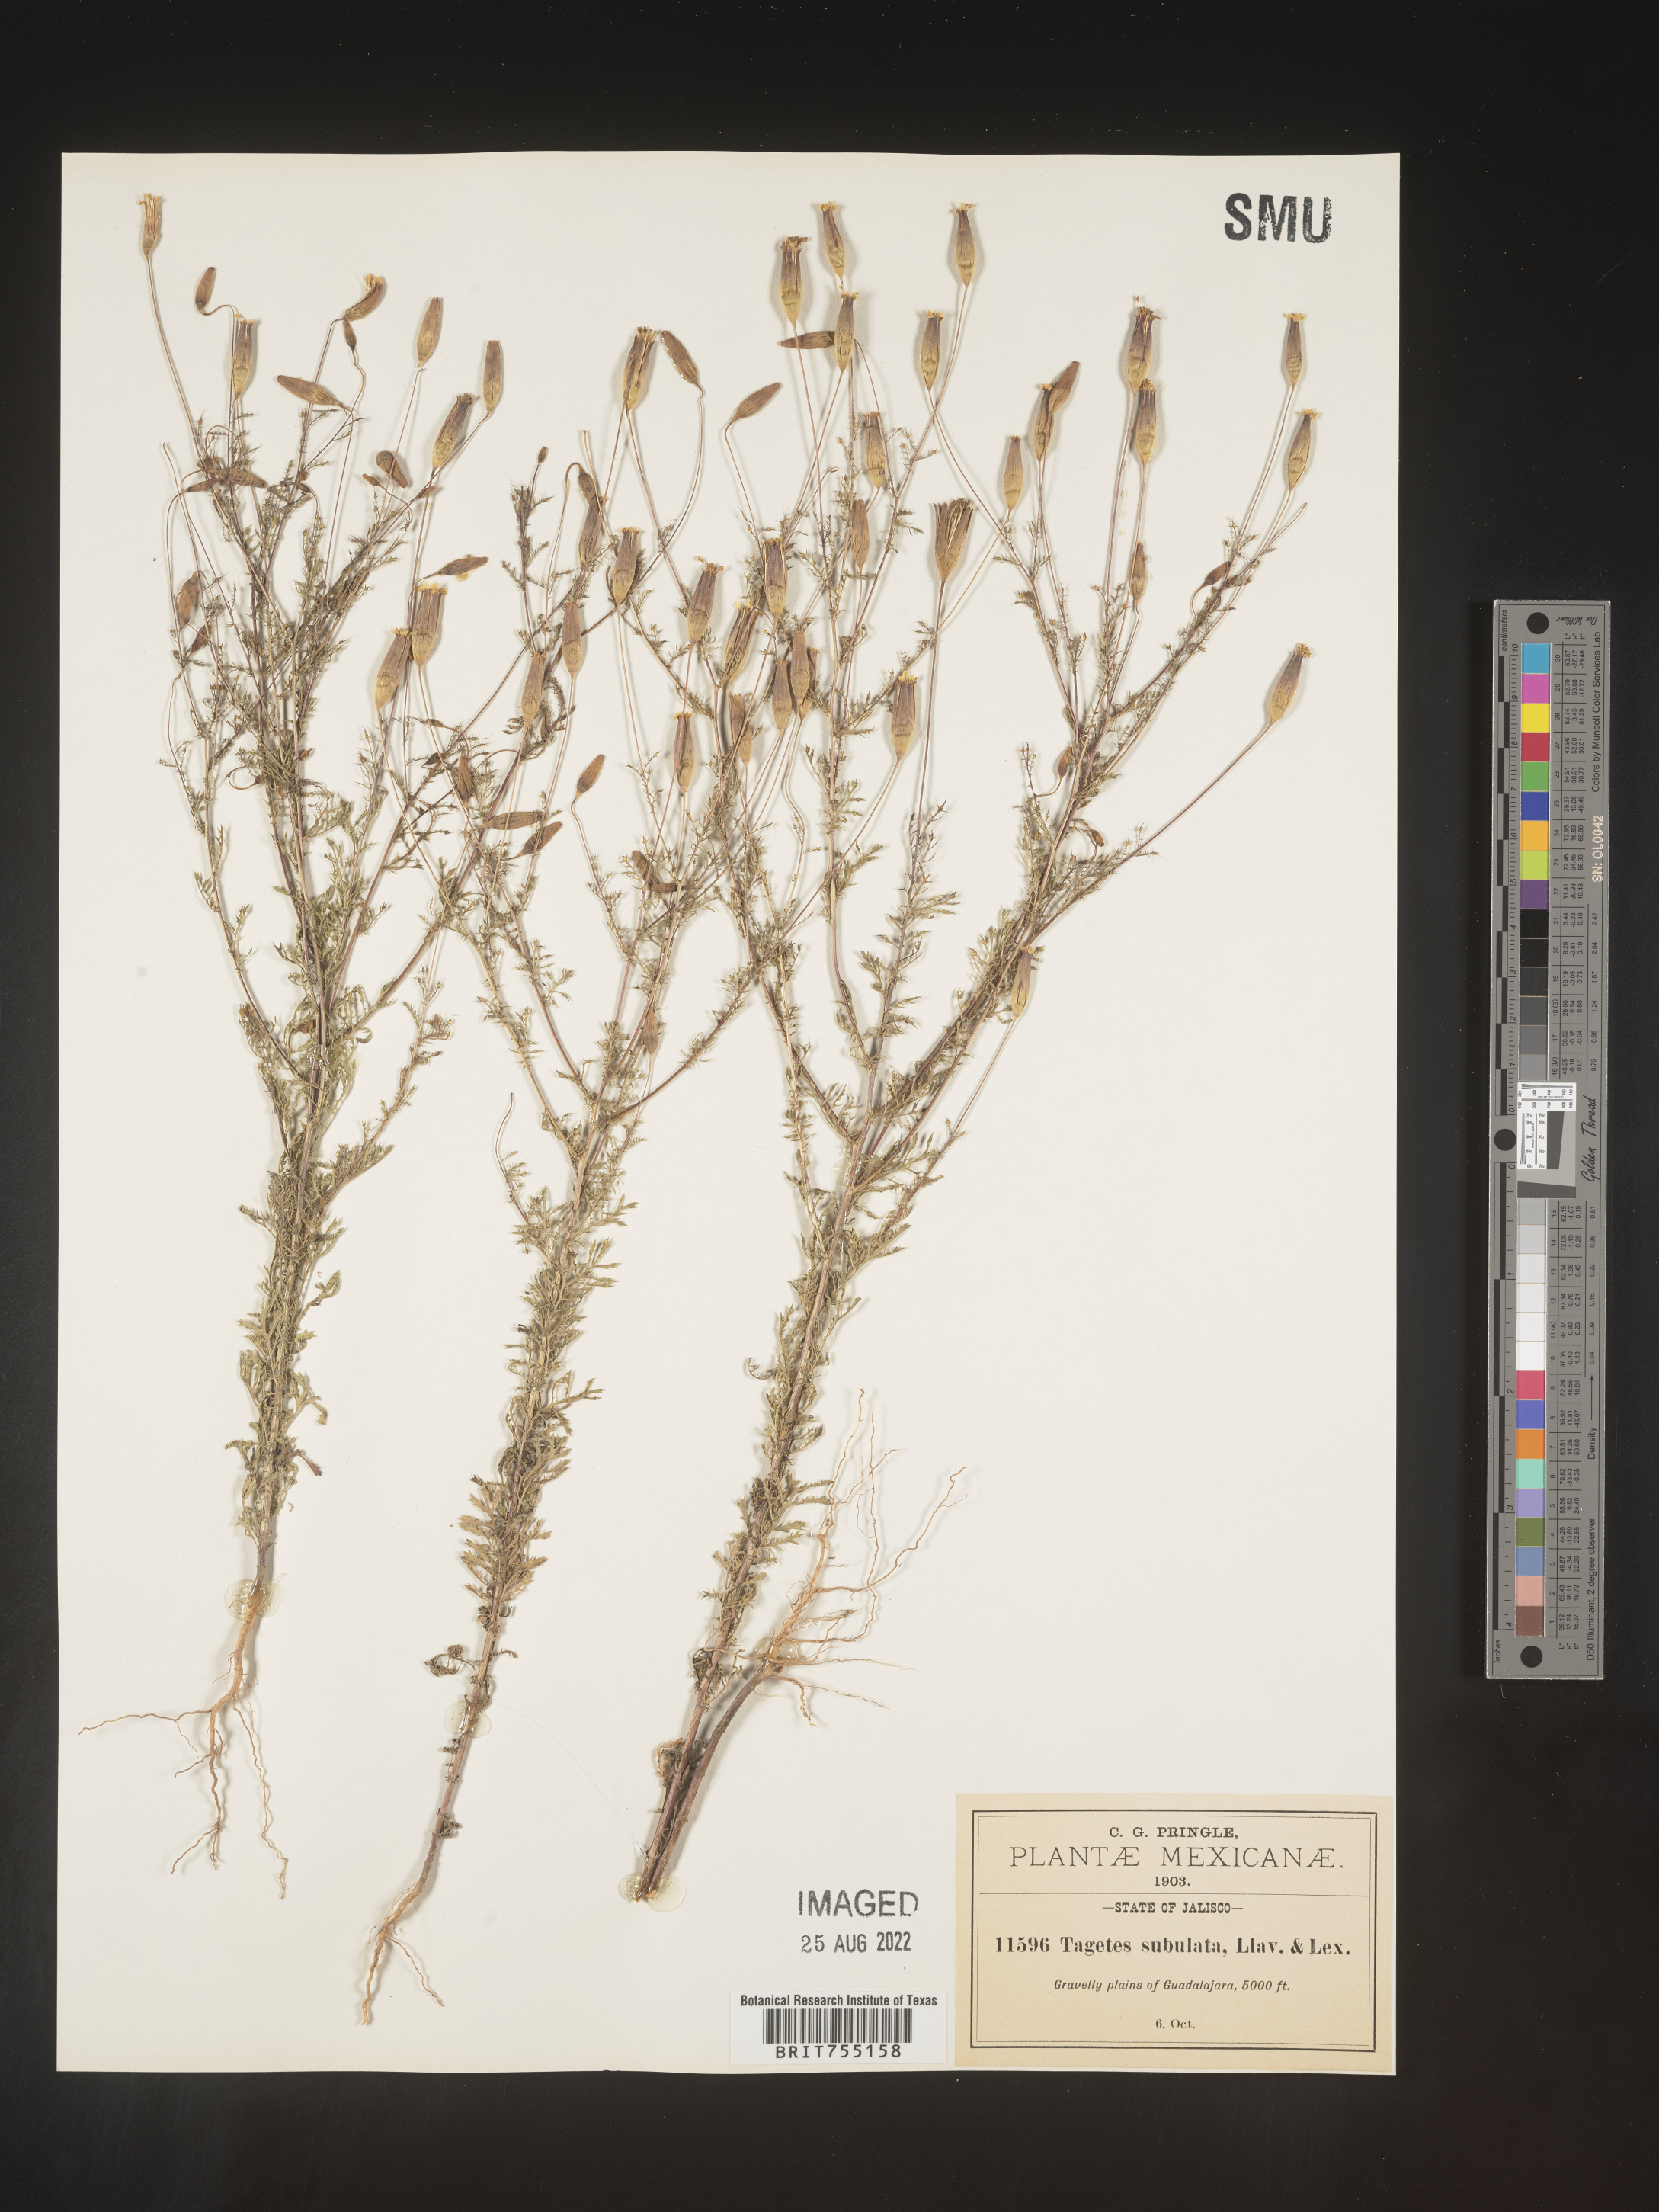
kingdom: Plantae
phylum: Tracheophyta
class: Magnoliopsida
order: Asterales
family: Asteraceae
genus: Tagetes
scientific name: Tagetes
